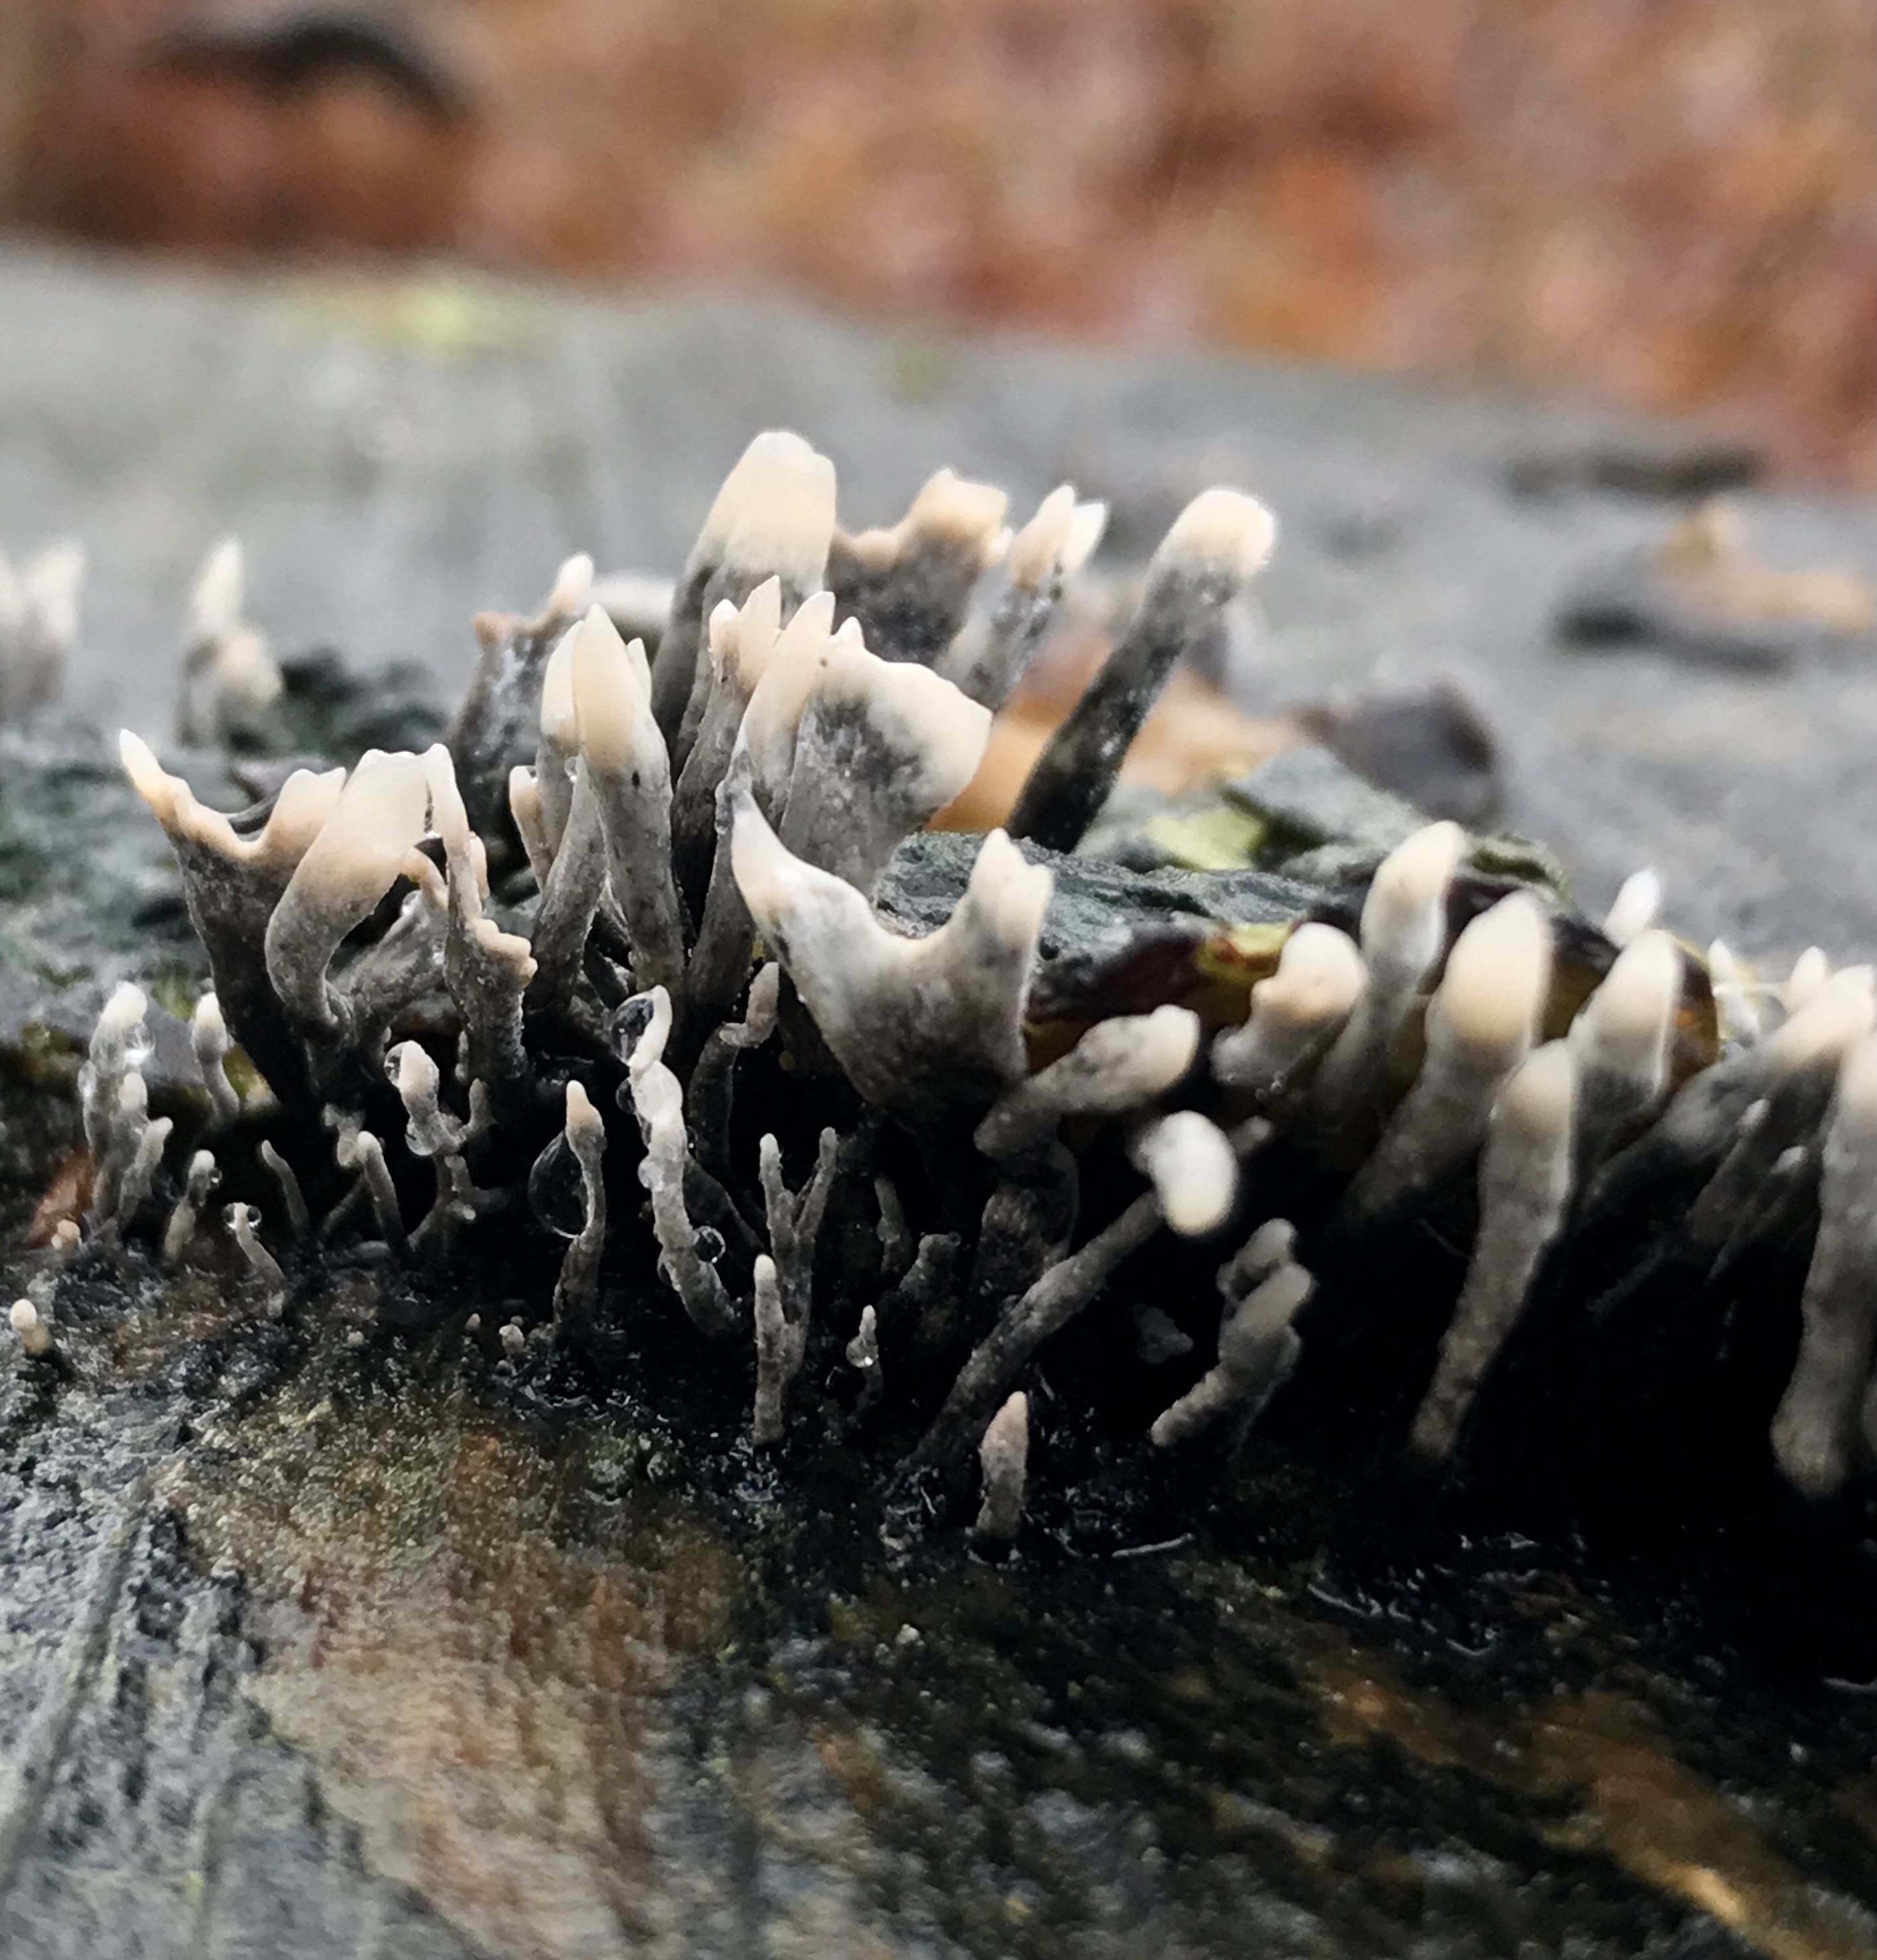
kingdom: Fungi
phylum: Ascomycota
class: Sordariomycetes
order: Xylariales
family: Xylariaceae
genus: Xylaria
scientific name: Xylaria hypoxylon
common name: grenet stødsvamp
